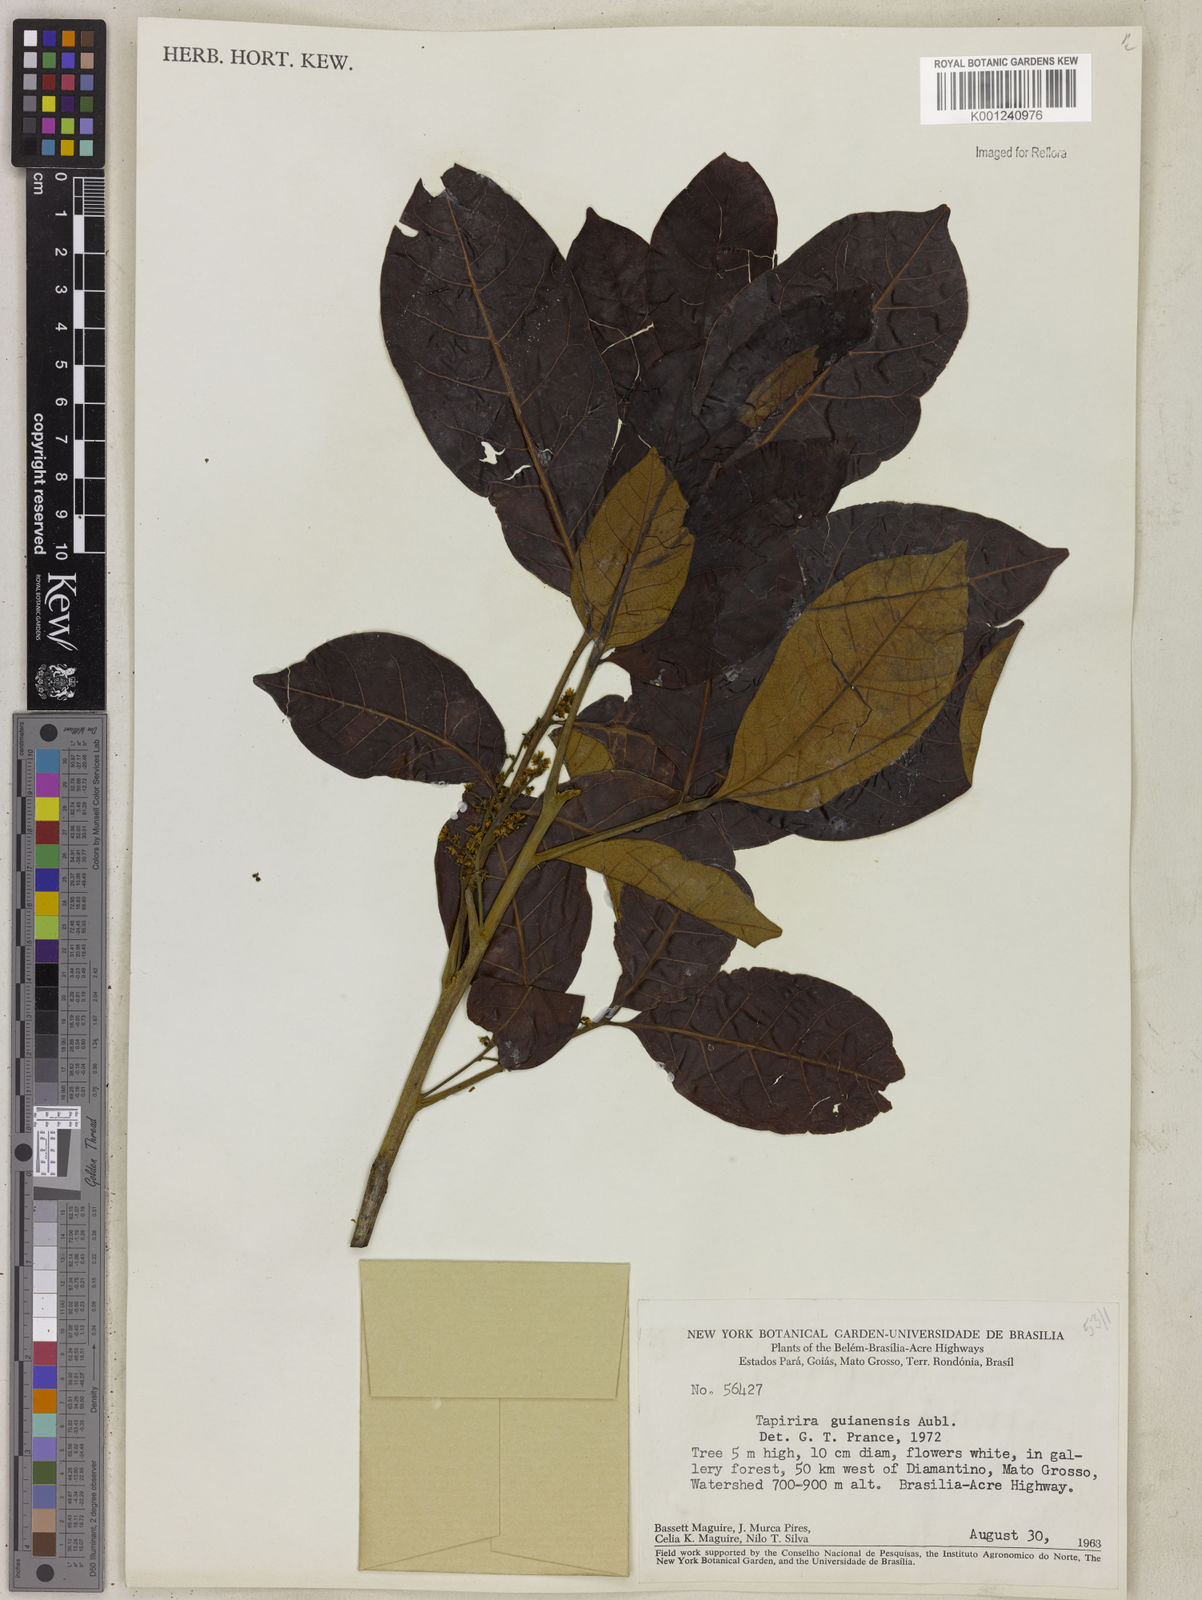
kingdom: Plantae
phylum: Tracheophyta
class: Magnoliopsida
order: Sapindales
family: Anacardiaceae
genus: Tapirira
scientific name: Tapirira guianensis
